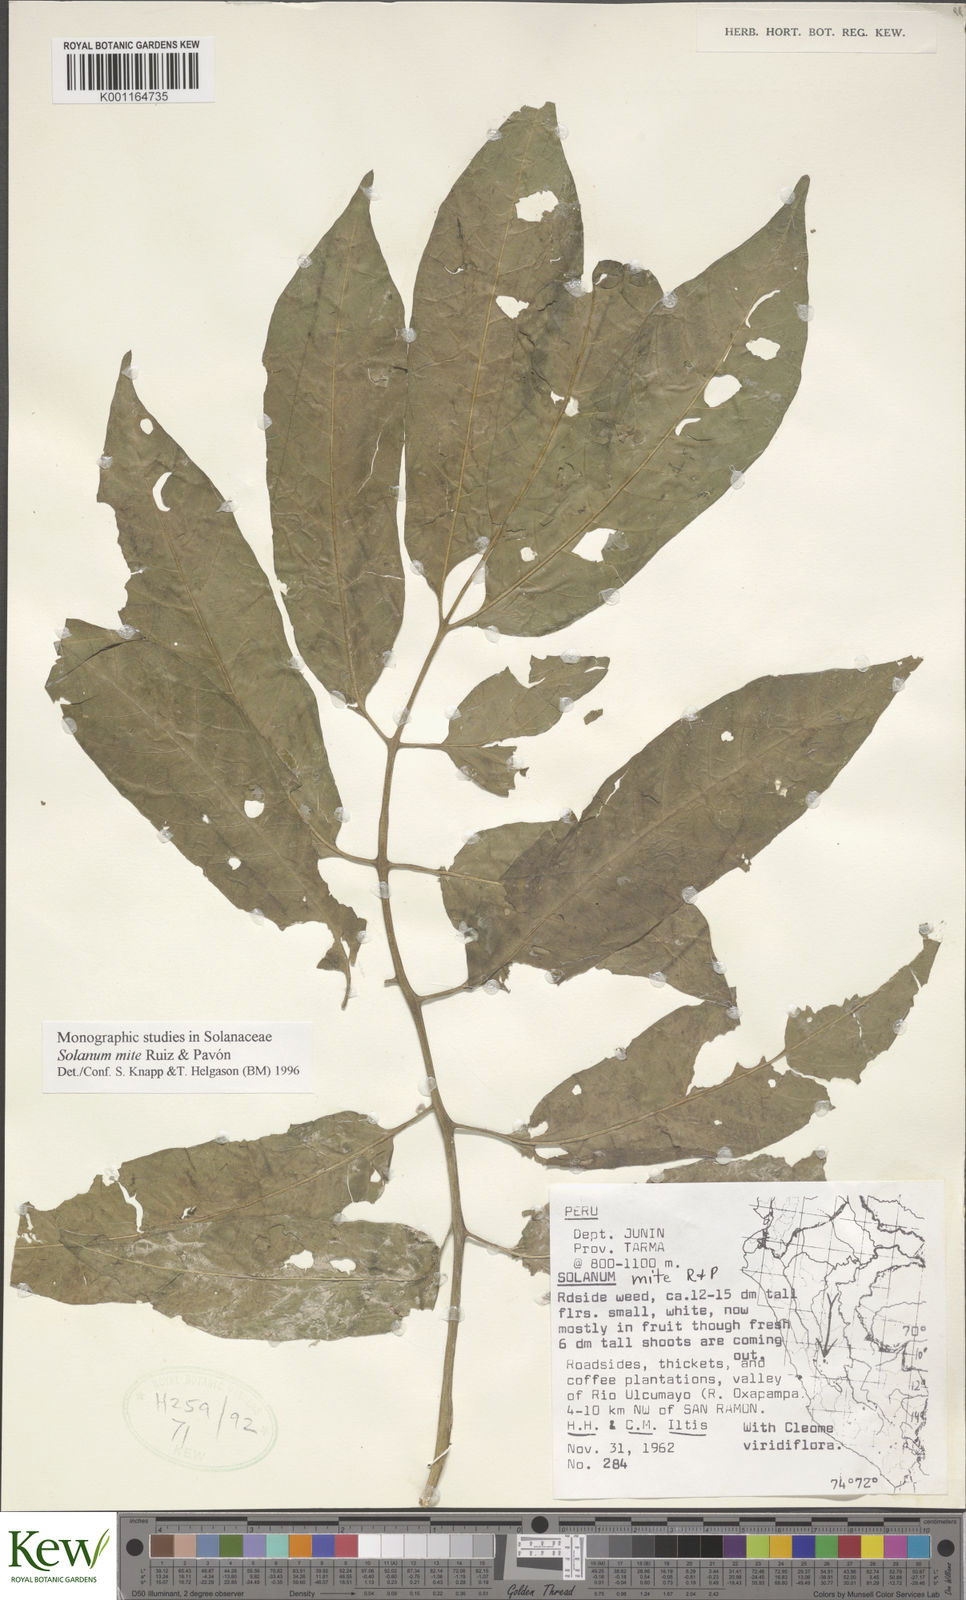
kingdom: Plantae
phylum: Tracheophyta
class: Magnoliopsida
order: Solanales
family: Solanaceae
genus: Solanum
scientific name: Solanum mite
